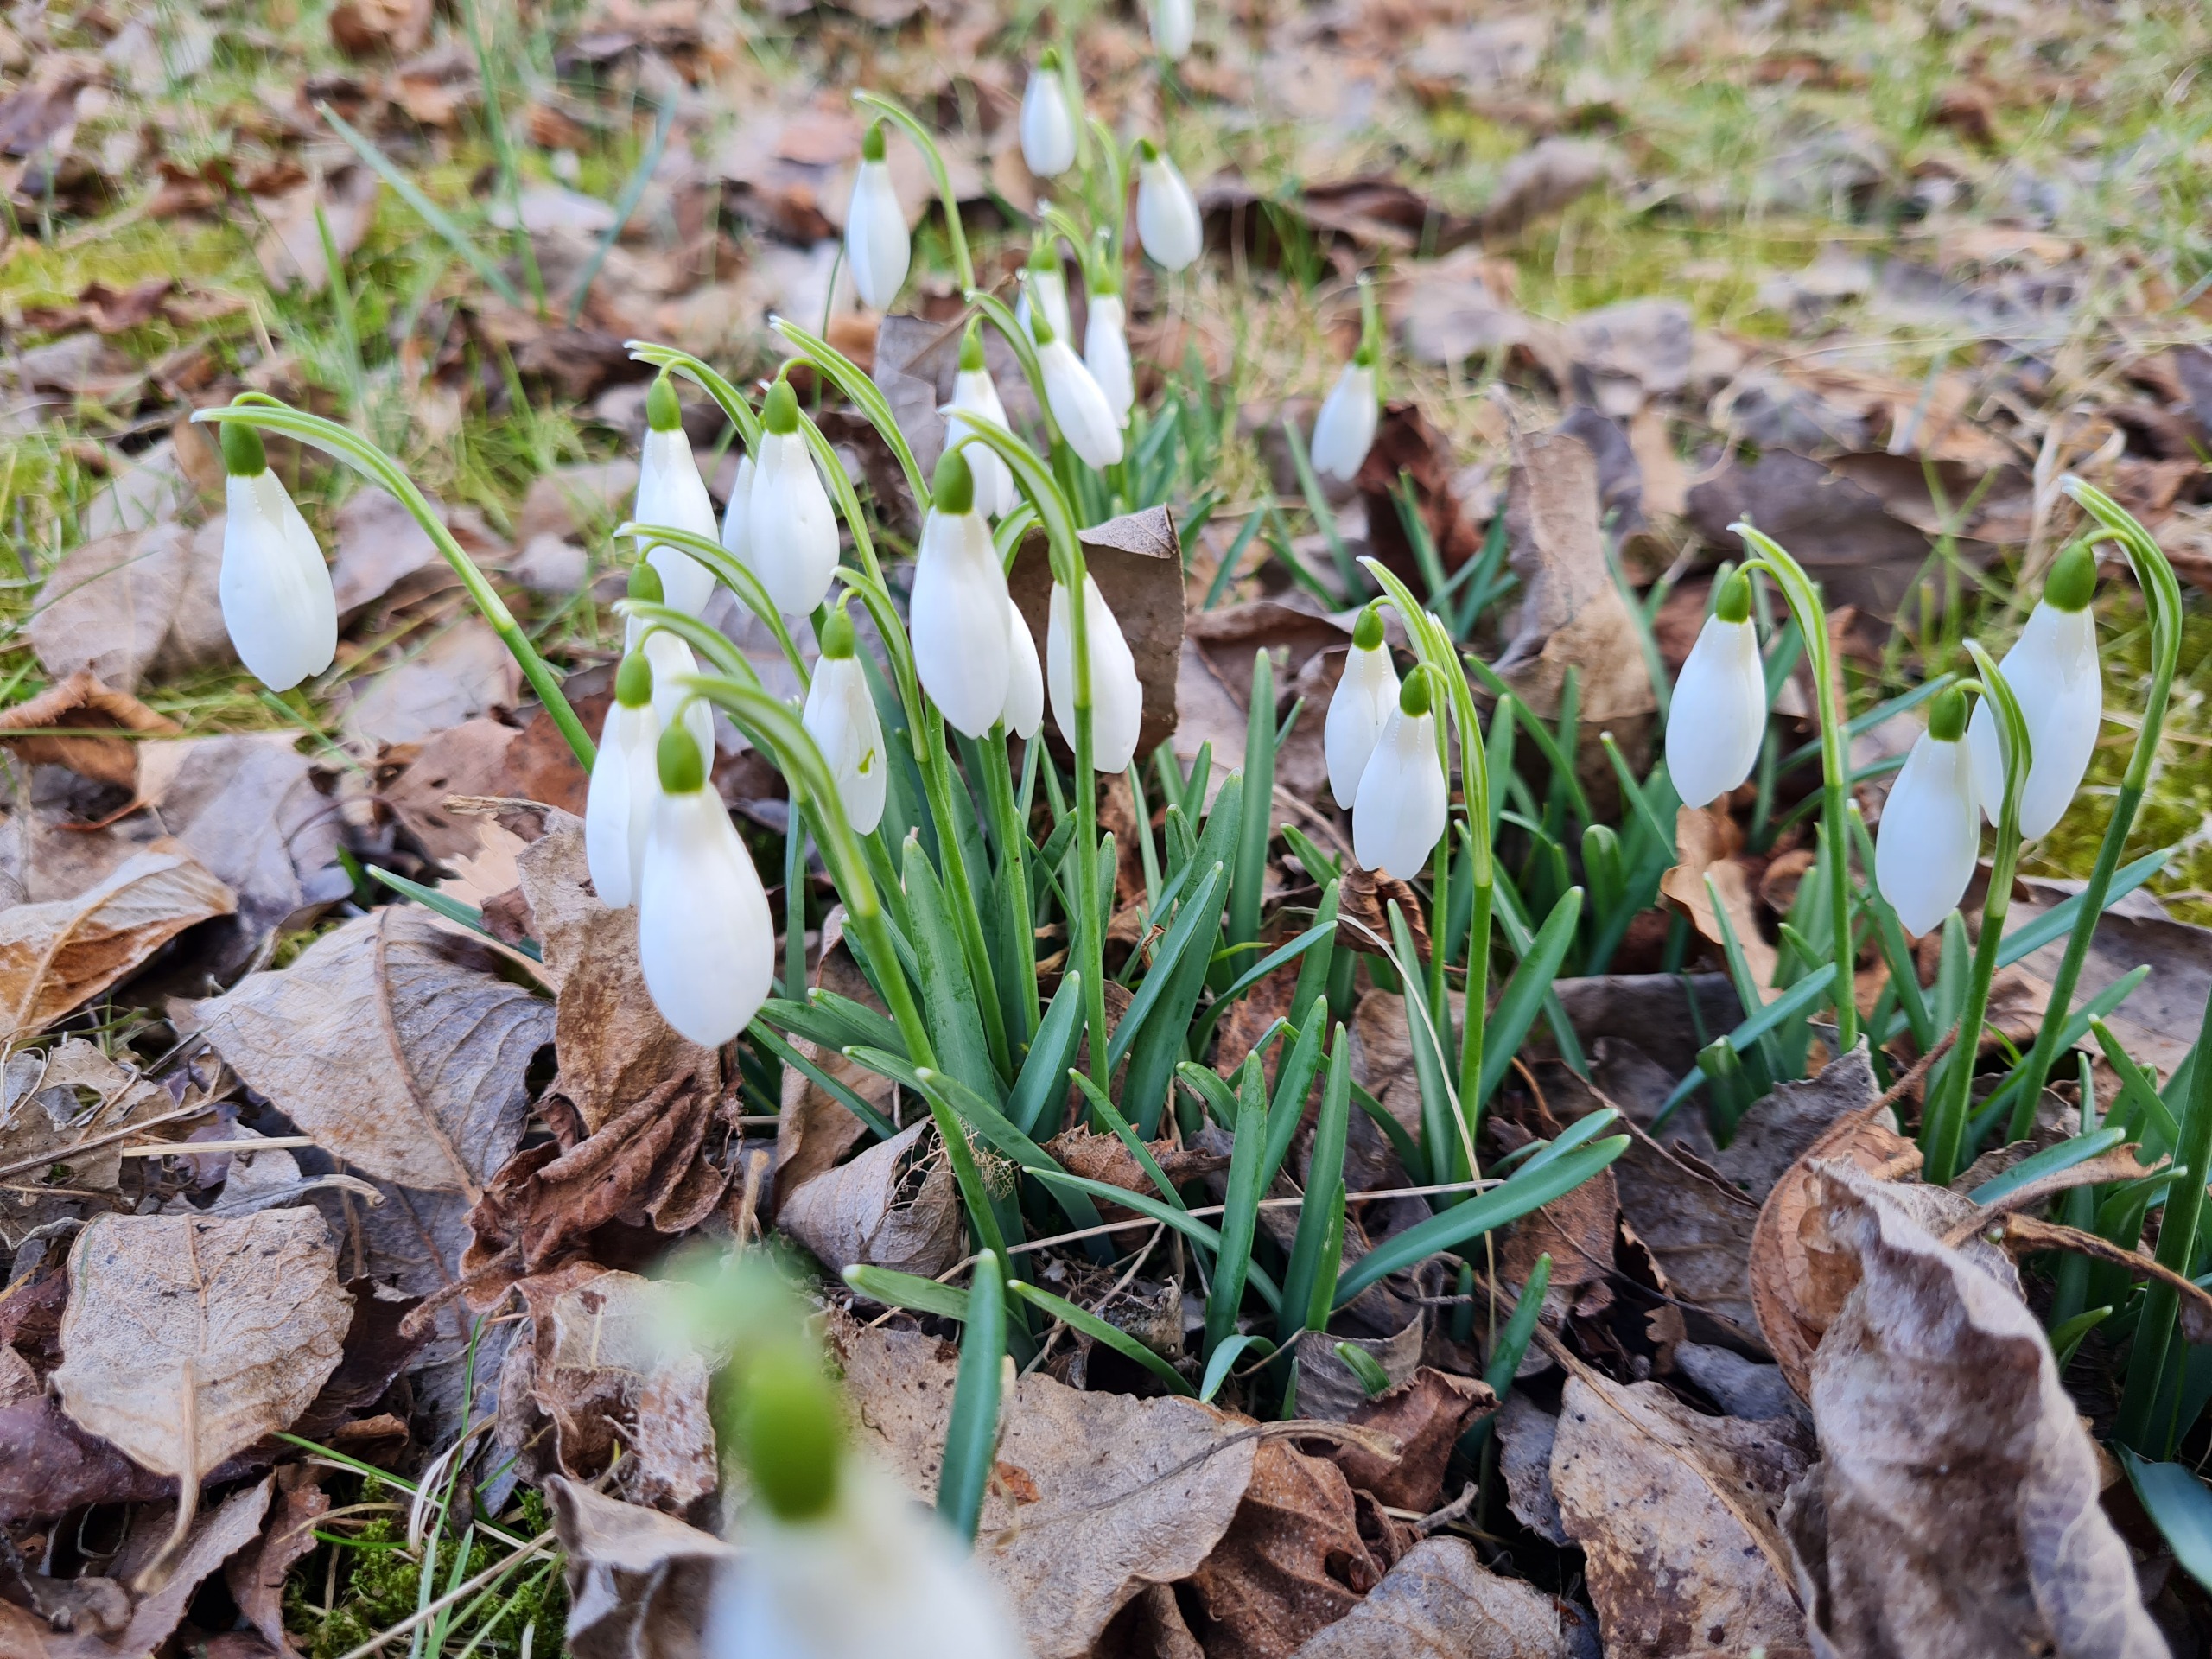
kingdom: Plantae
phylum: Tracheophyta
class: Liliopsida
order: Asparagales
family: Amaryllidaceae
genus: Galanthus
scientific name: Galanthus nivalis
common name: Vintergæk
